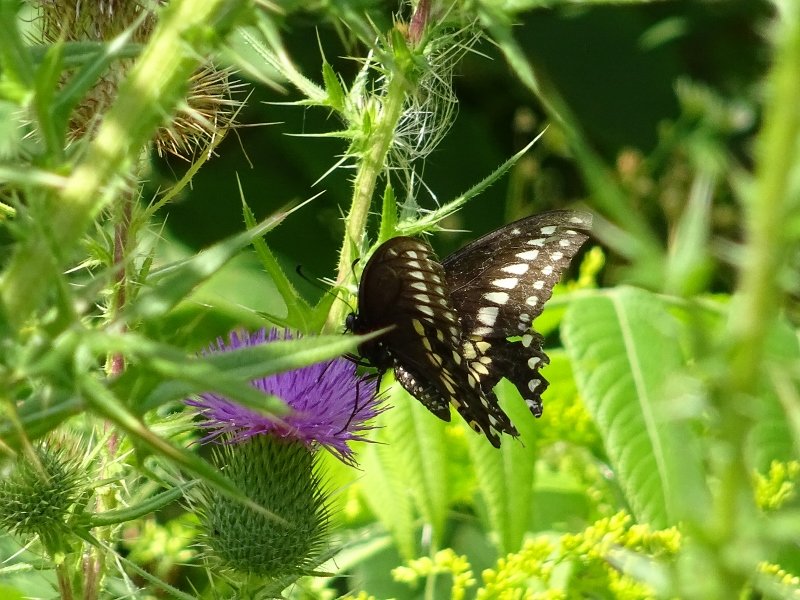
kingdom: Animalia
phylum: Arthropoda
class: Insecta
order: Lepidoptera
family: Papilionidae
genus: Papilio
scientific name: Papilio polyxenes
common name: Black Swallowtail
